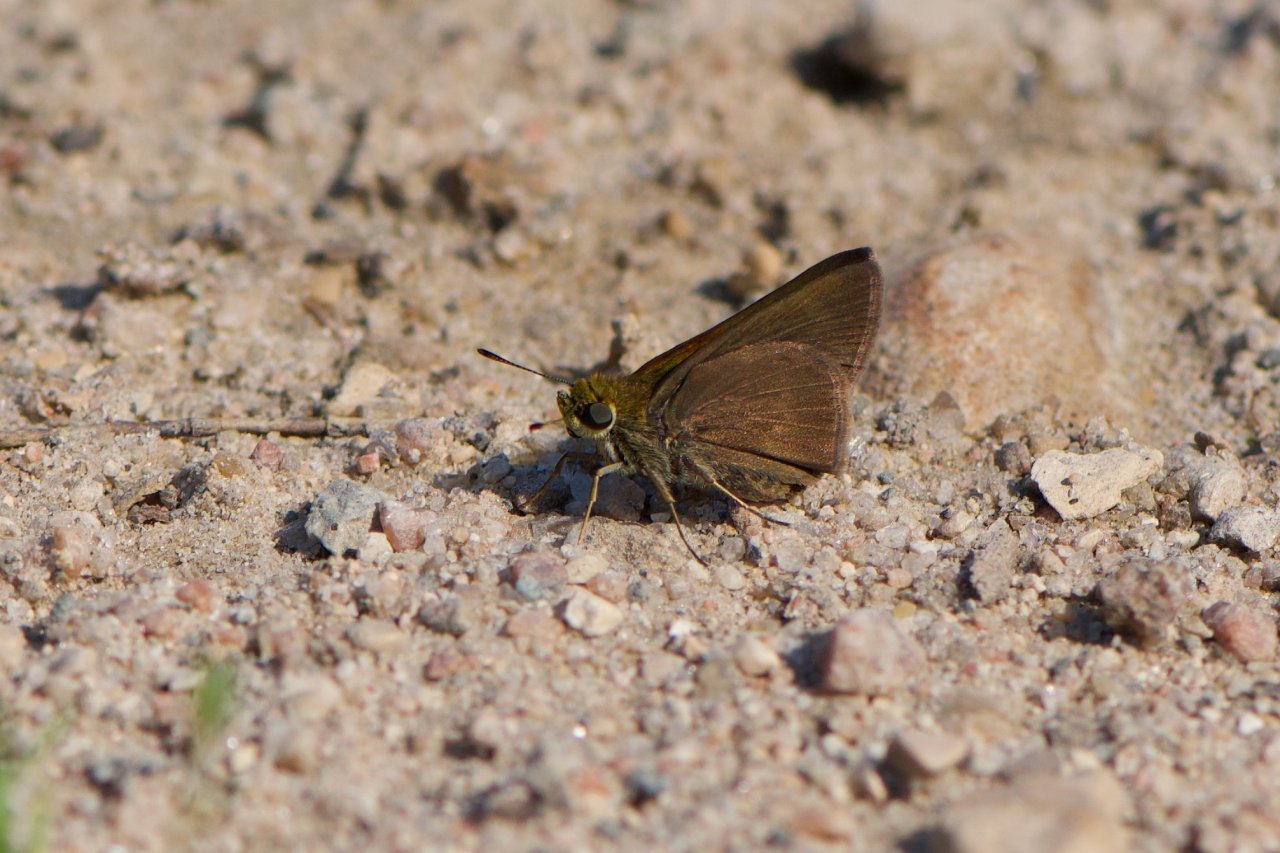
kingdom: Animalia
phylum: Arthropoda
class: Insecta
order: Lepidoptera
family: Hesperiidae
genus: Euphyes
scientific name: Euphyes vestris
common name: Dun Skipper
